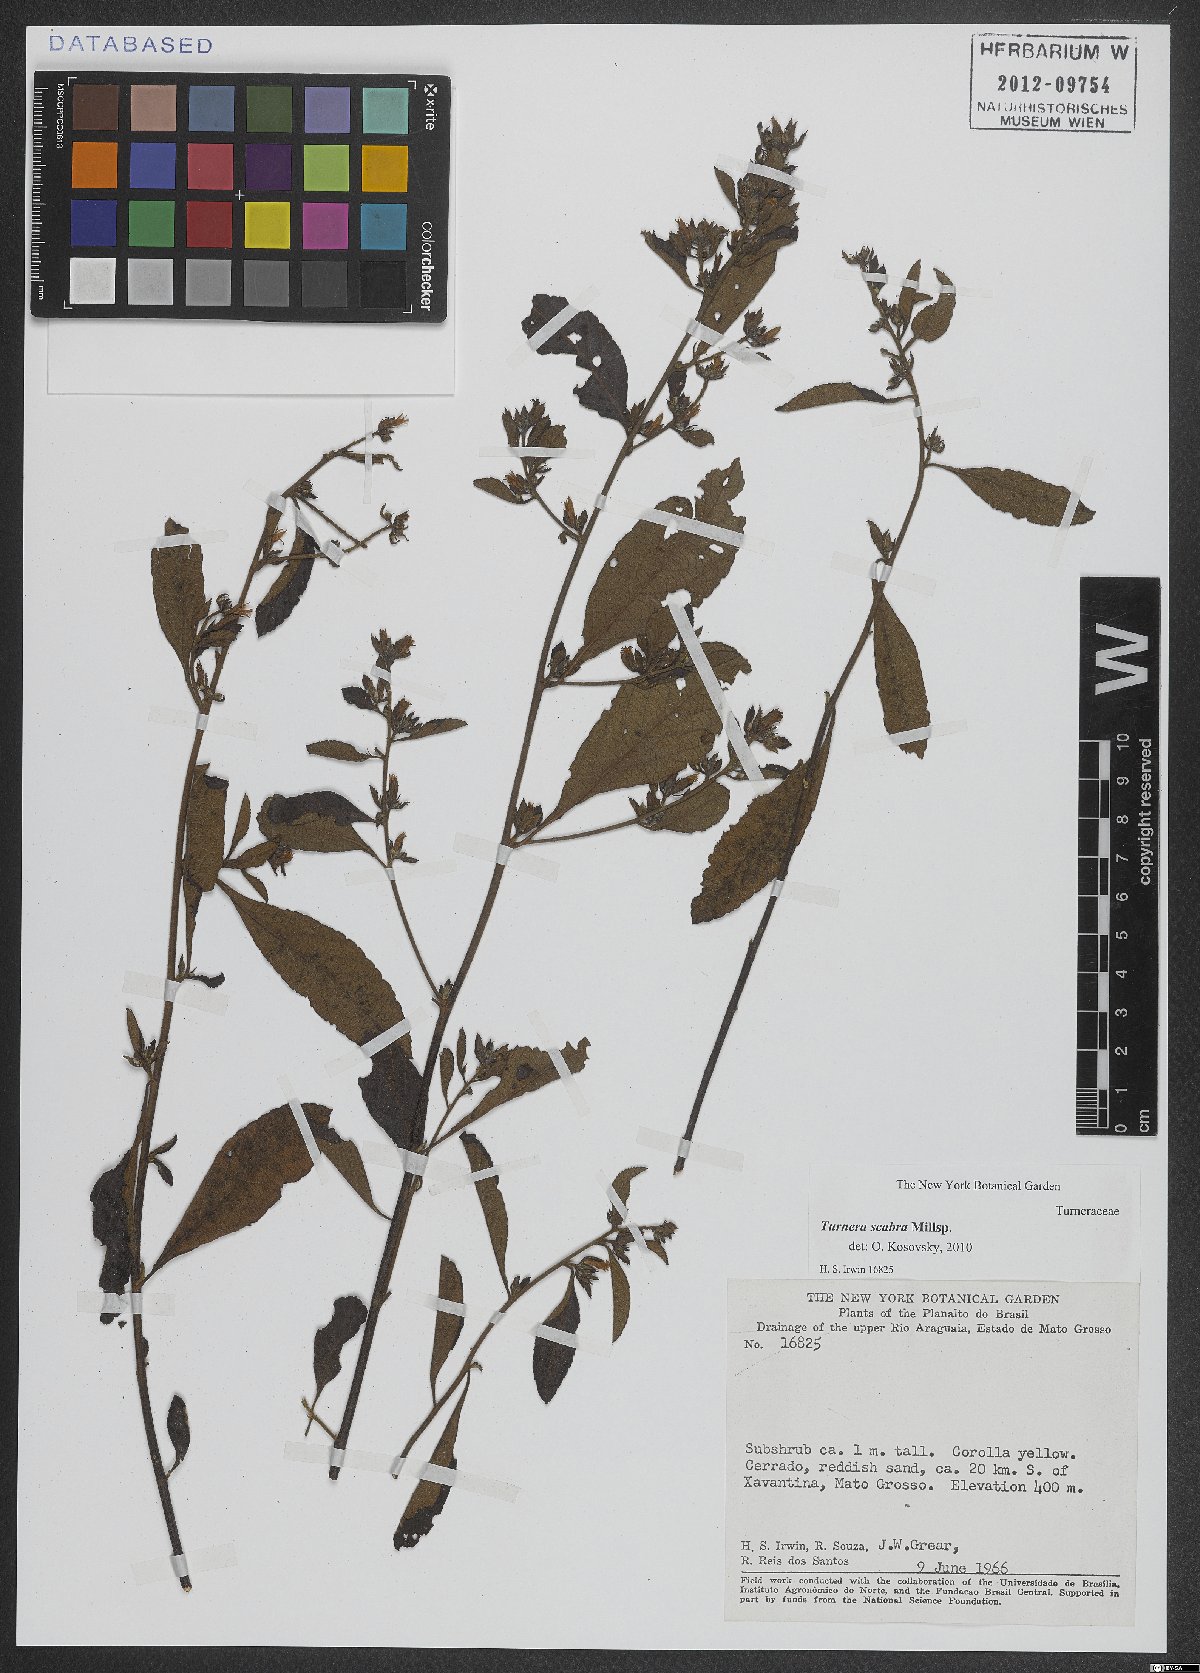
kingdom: Plantae
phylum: Tracheophyta
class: Magnoliopsida
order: Malpighiales
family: Turneraceae
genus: Turnera
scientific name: Turnera scabra
